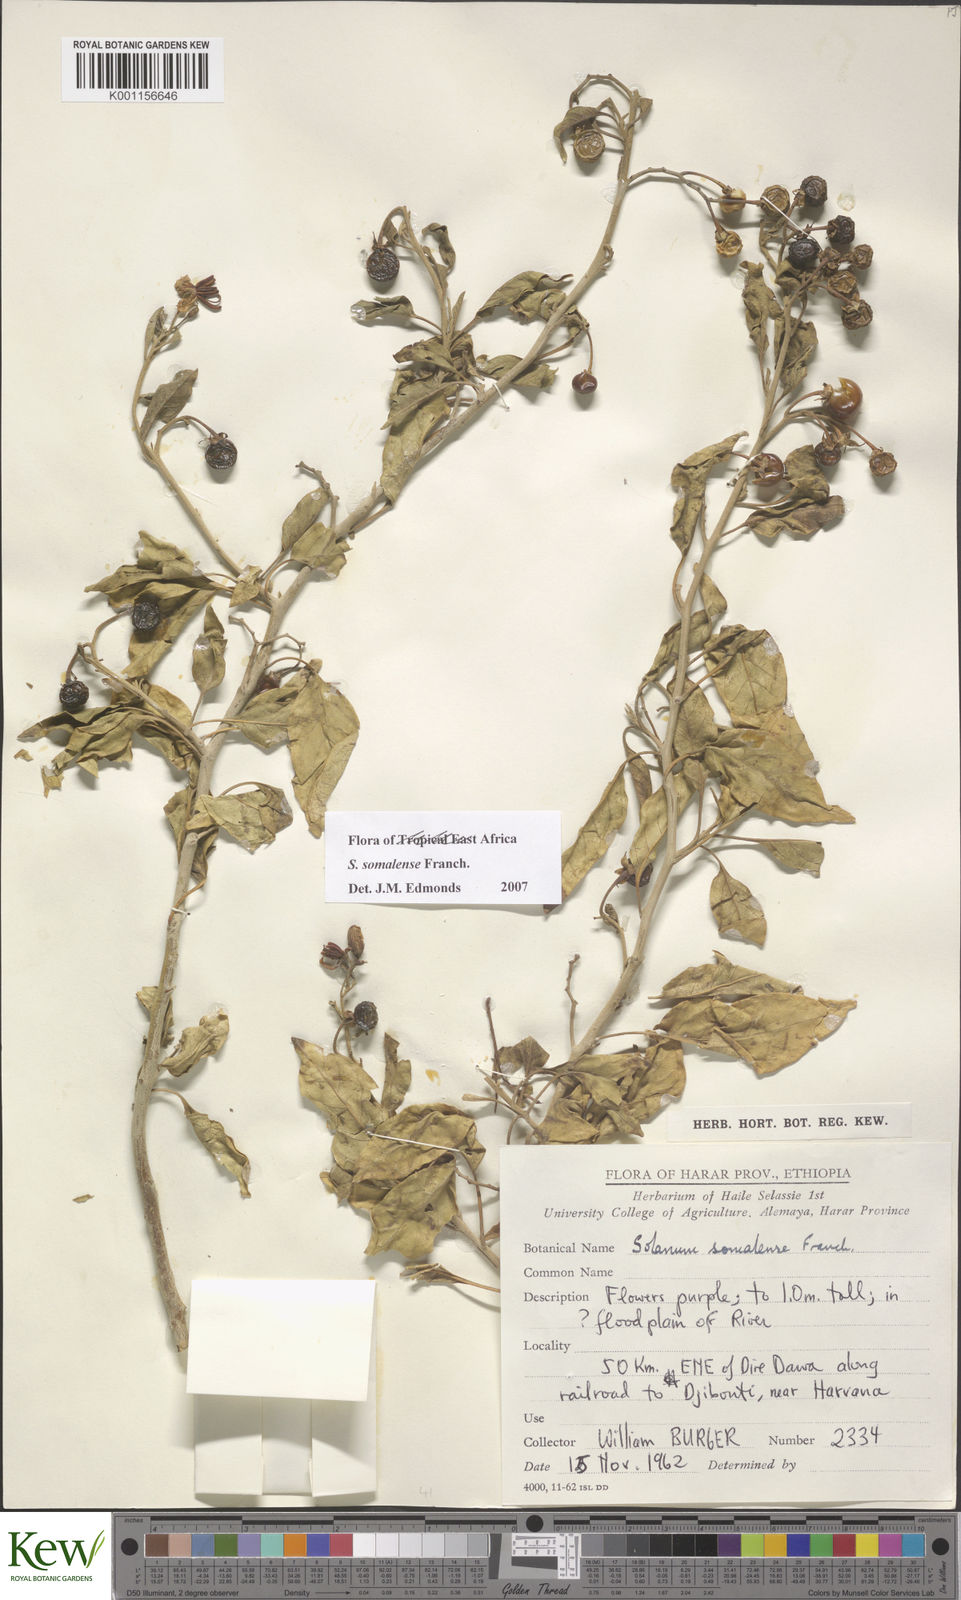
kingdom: Plantae
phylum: Tracheophyta
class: Magnoliopsida
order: Solanales
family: Solanaceae
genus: Solanum
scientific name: Solanum somalense
